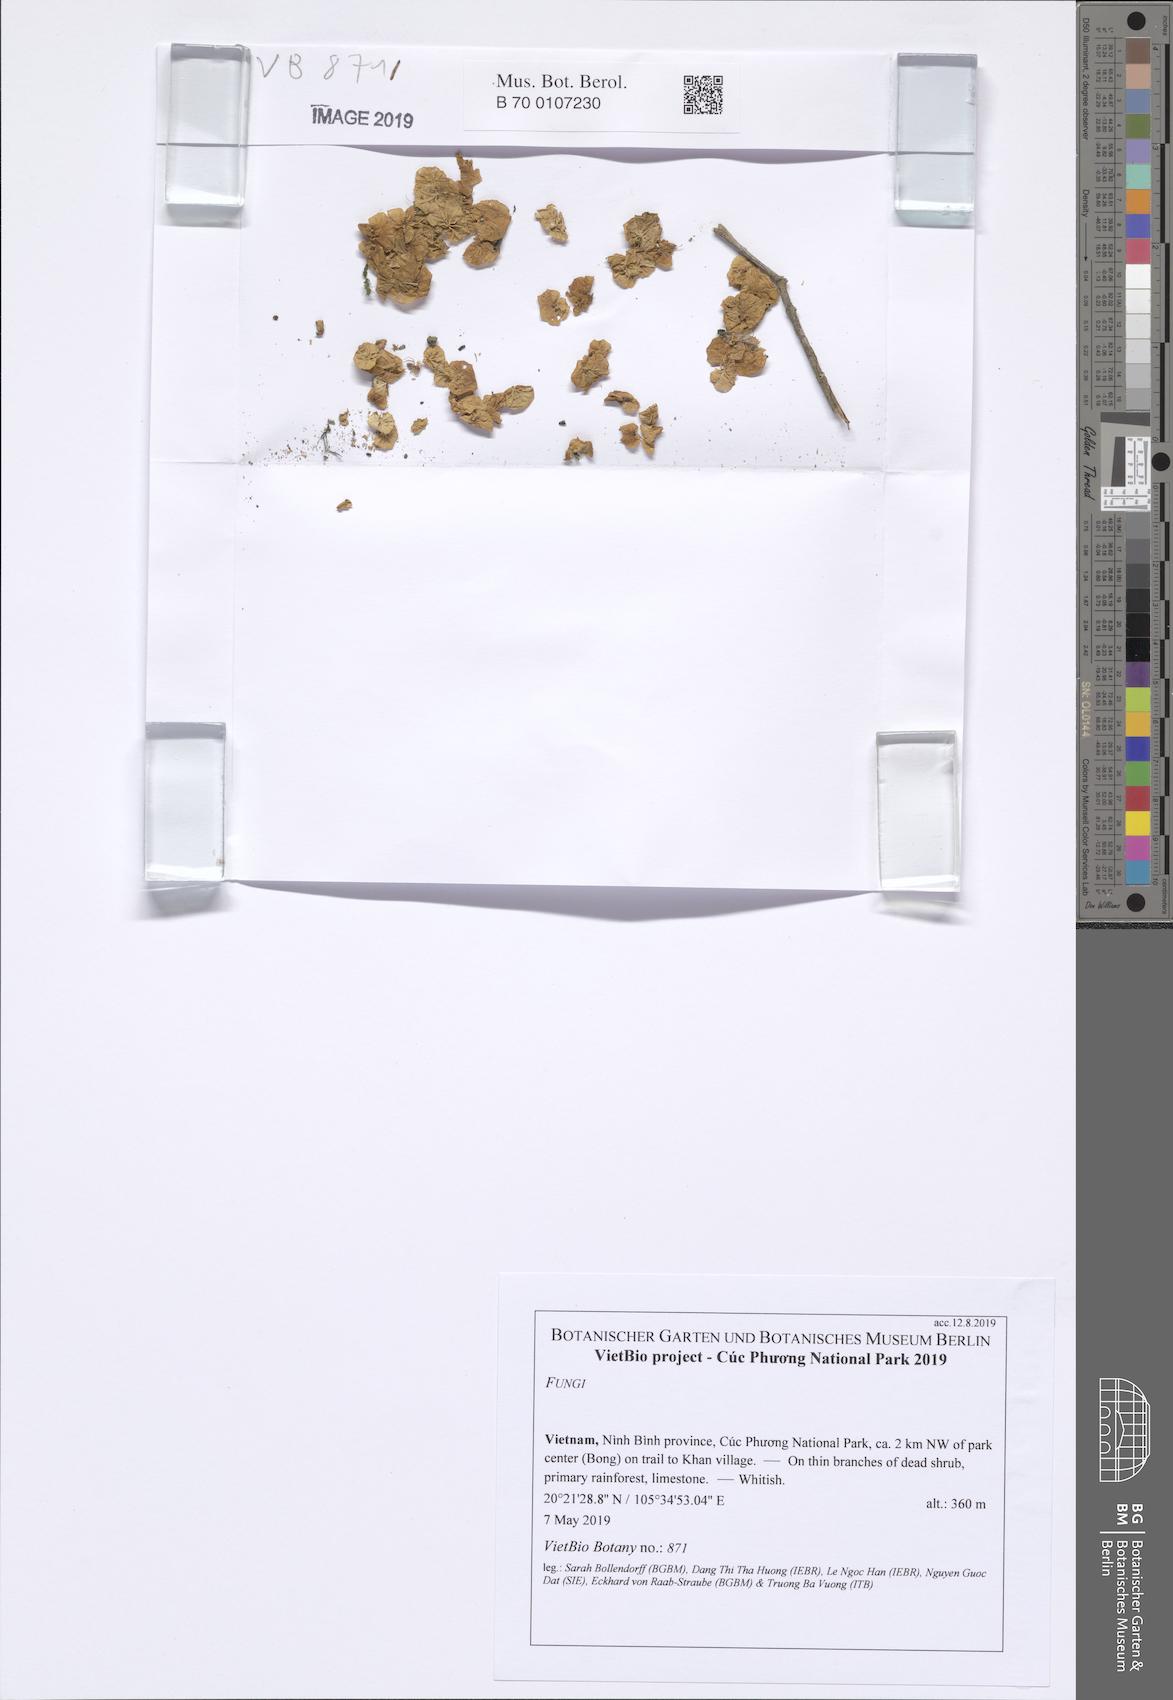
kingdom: Fungi
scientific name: Fungi
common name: Fungi
